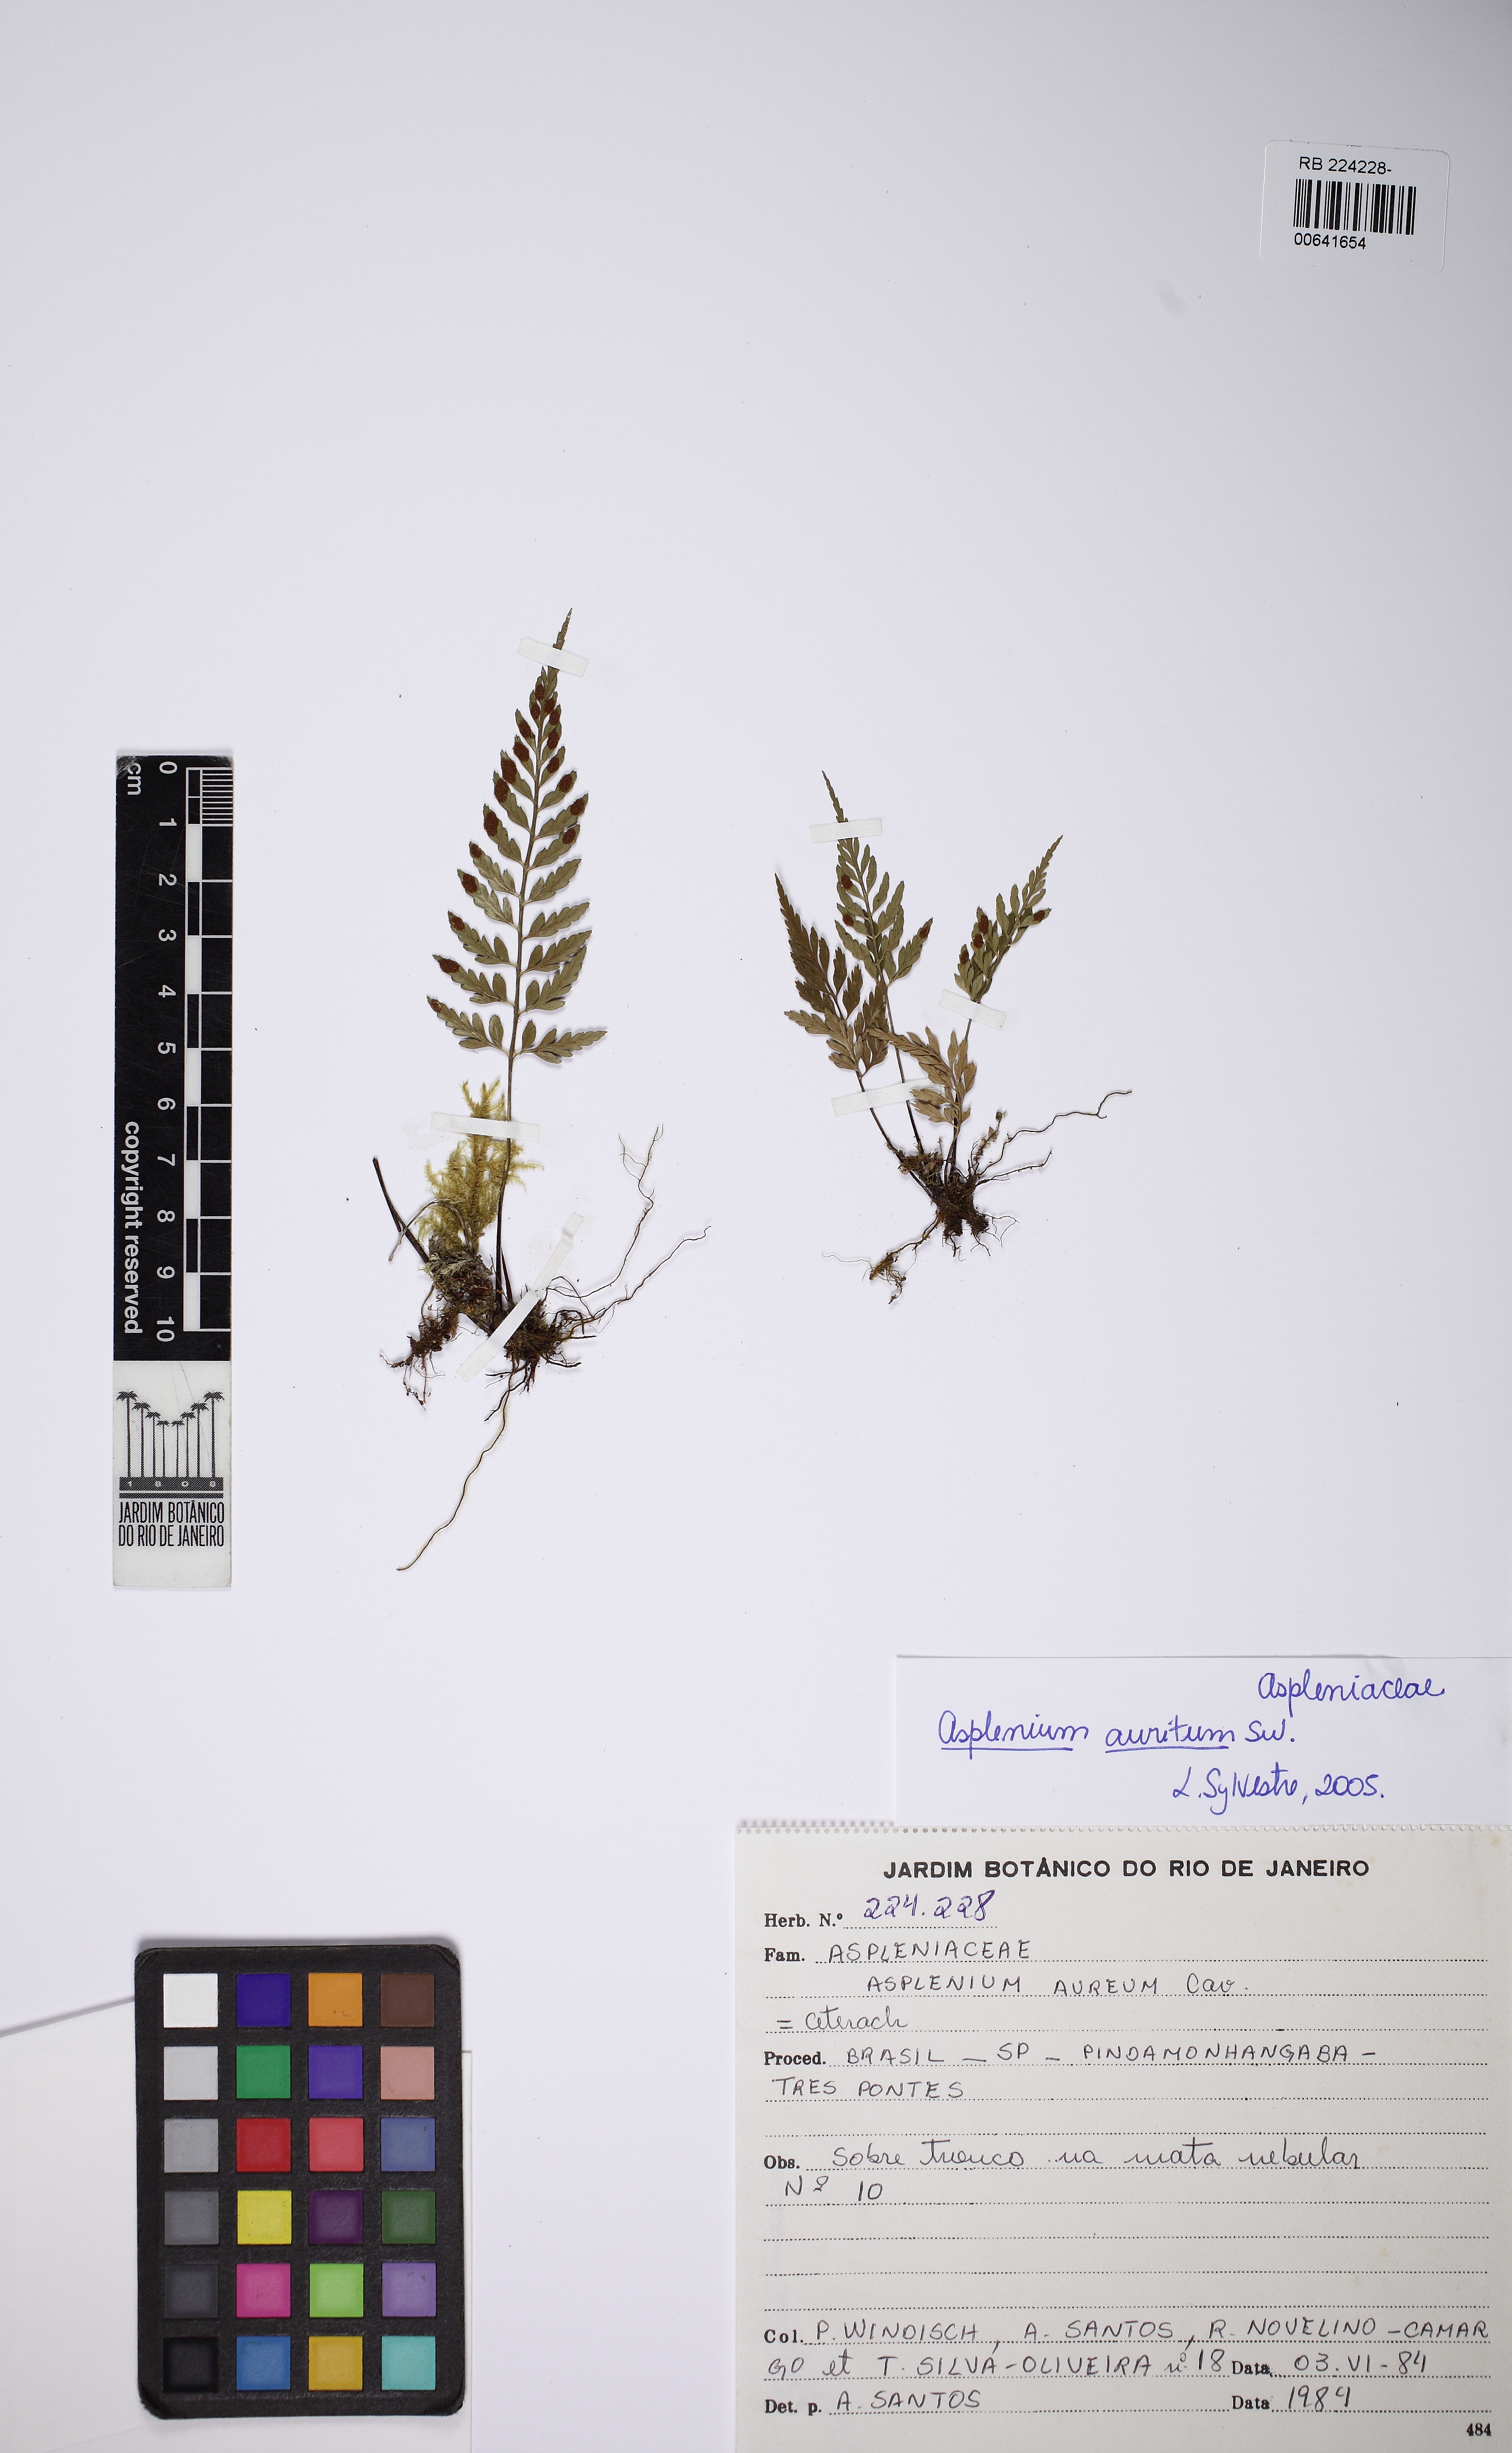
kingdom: Plantae
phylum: Tracheophyta
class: Polypodiopsida
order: Polypodiales
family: Aspleniaceae
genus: Asplenium
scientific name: Asplenium auritum
